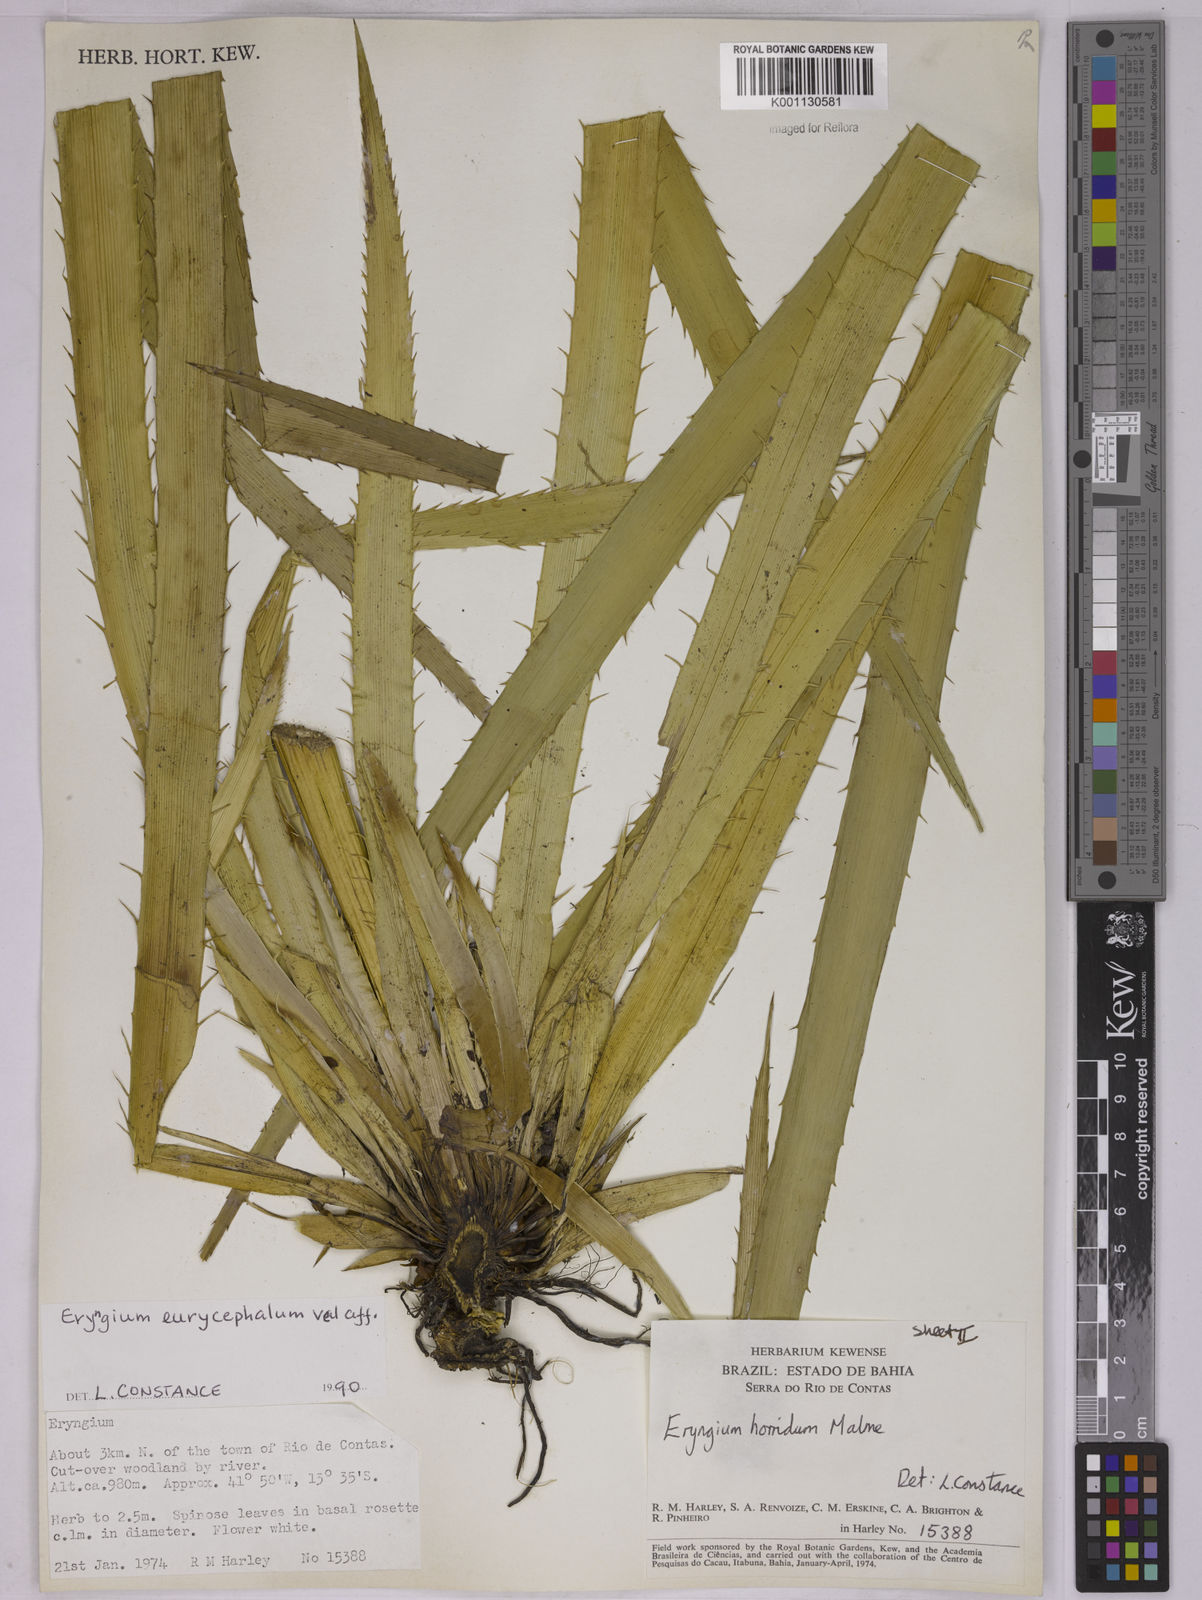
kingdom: Plantae
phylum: Tracheophyta
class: Magnoliopsida
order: Apiales
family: Apiaceae
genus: Eryngium
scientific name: Eryngium horridum
